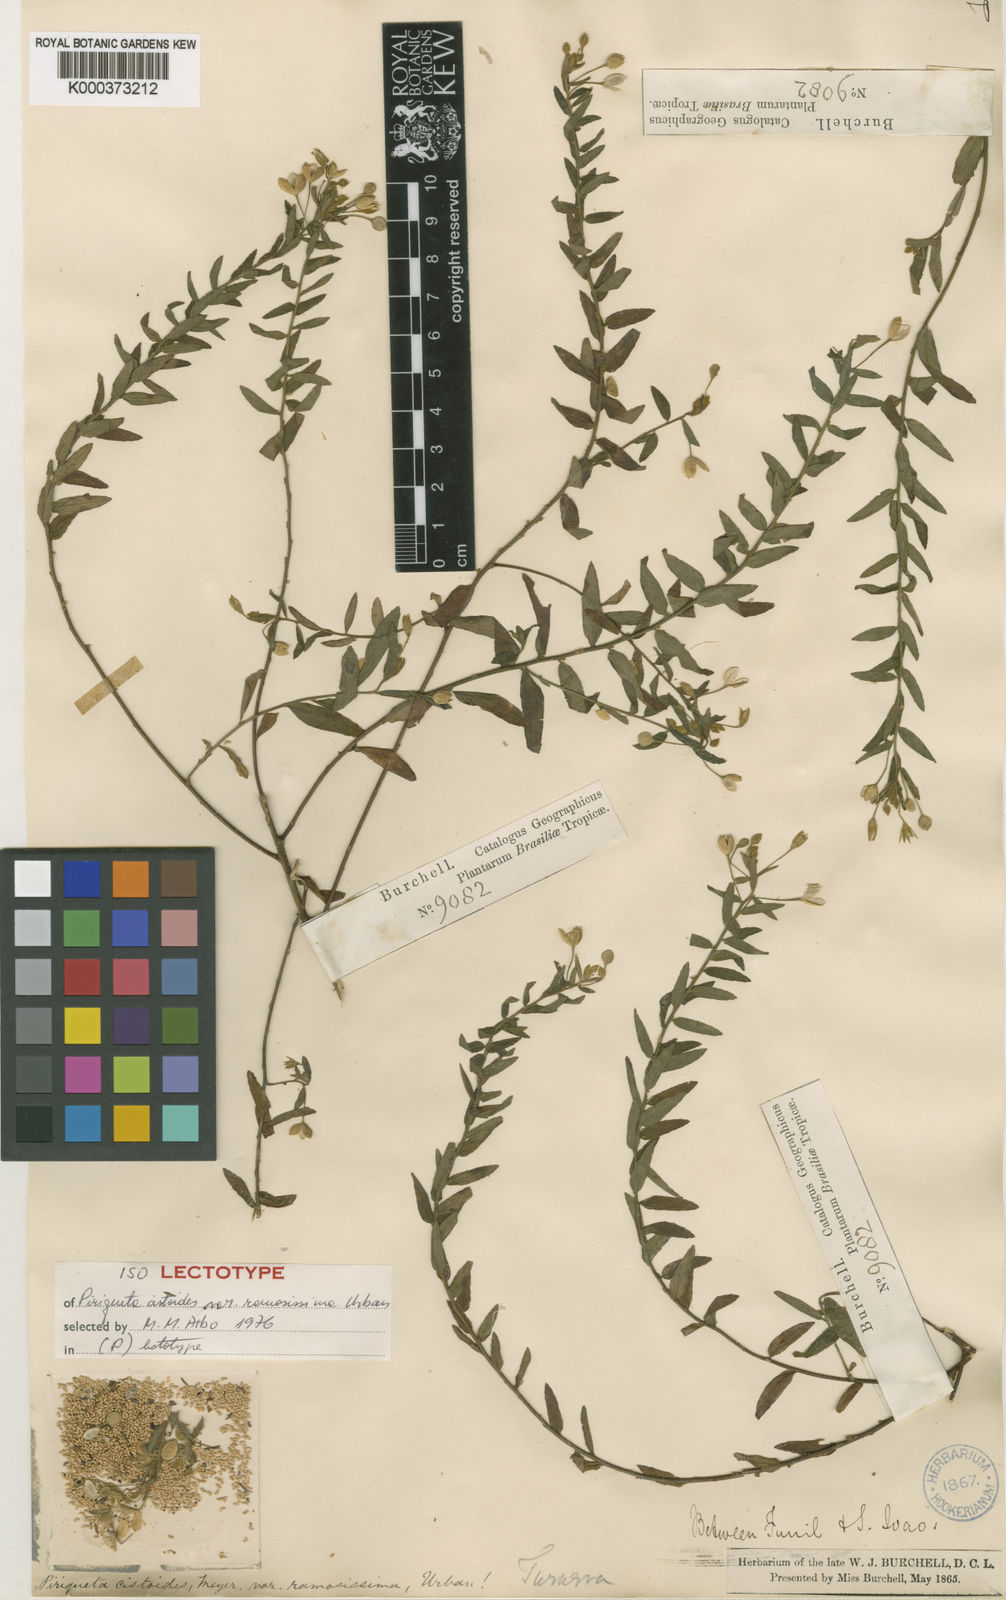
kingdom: Plantae
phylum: Tracheophyta
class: Magnoliopsida
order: Malpighiales
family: Turneraceae
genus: Piriqueta
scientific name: Piriqueta cistoides
